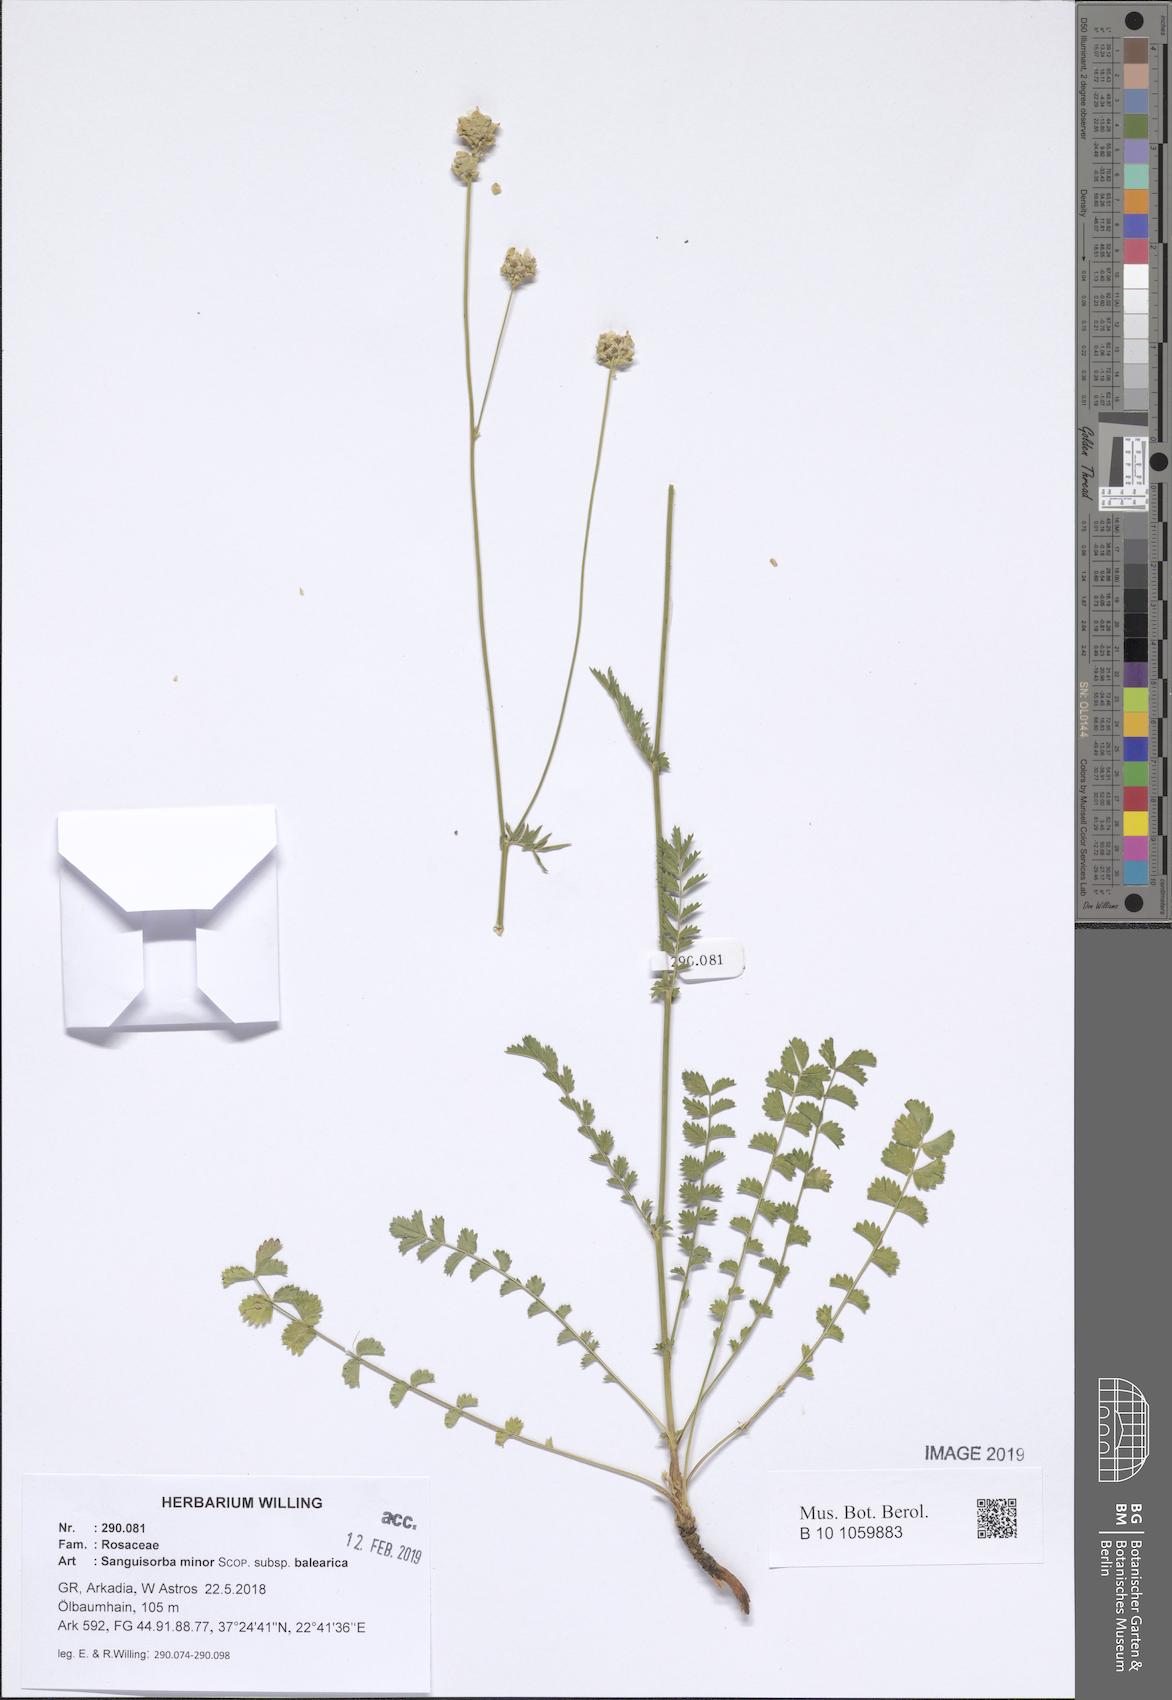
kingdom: Plantae
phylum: Tracheophyta
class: Magnoliopsida
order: Rosales
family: Rosaceae
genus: Poterium
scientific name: Poterium sanguisorba
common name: Salad burnet
